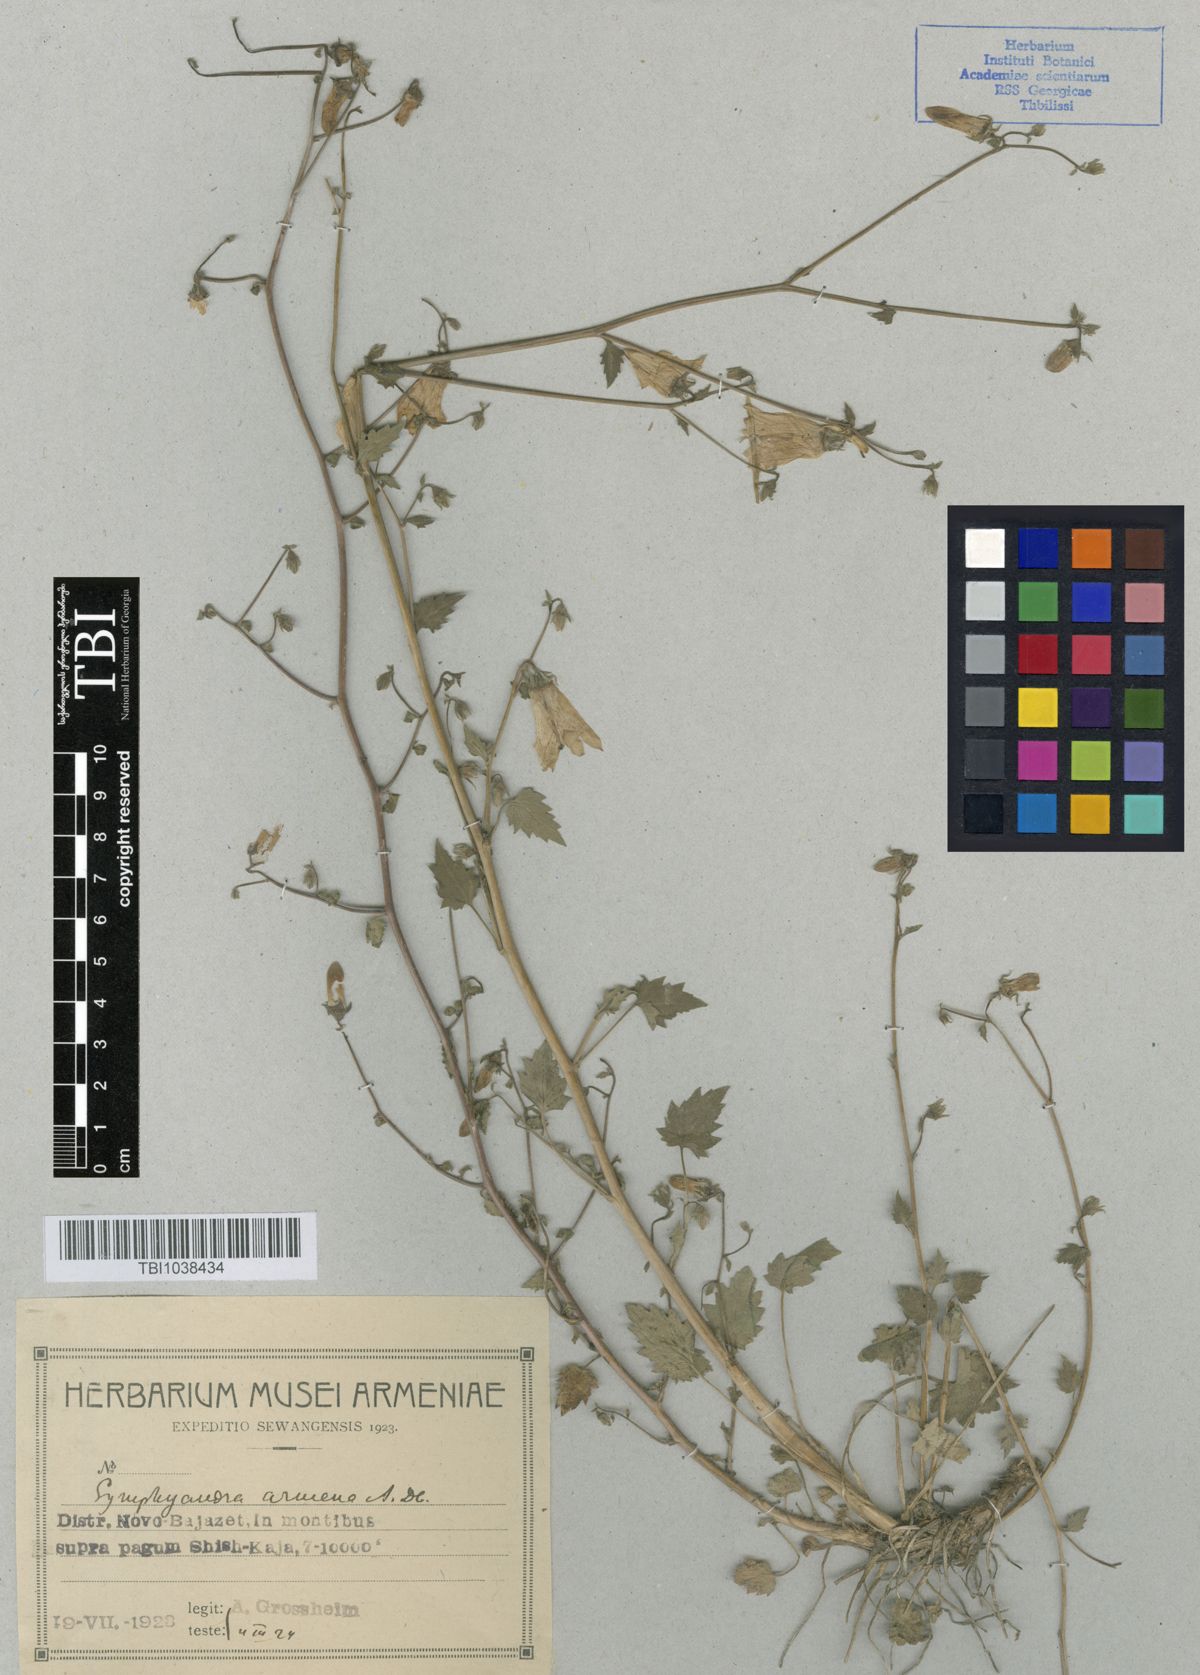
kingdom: Plantae
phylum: Tracheophyta
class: Magnoliopsida
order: Asterales
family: Campanulaceae
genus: Campanula
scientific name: Campanula armena
